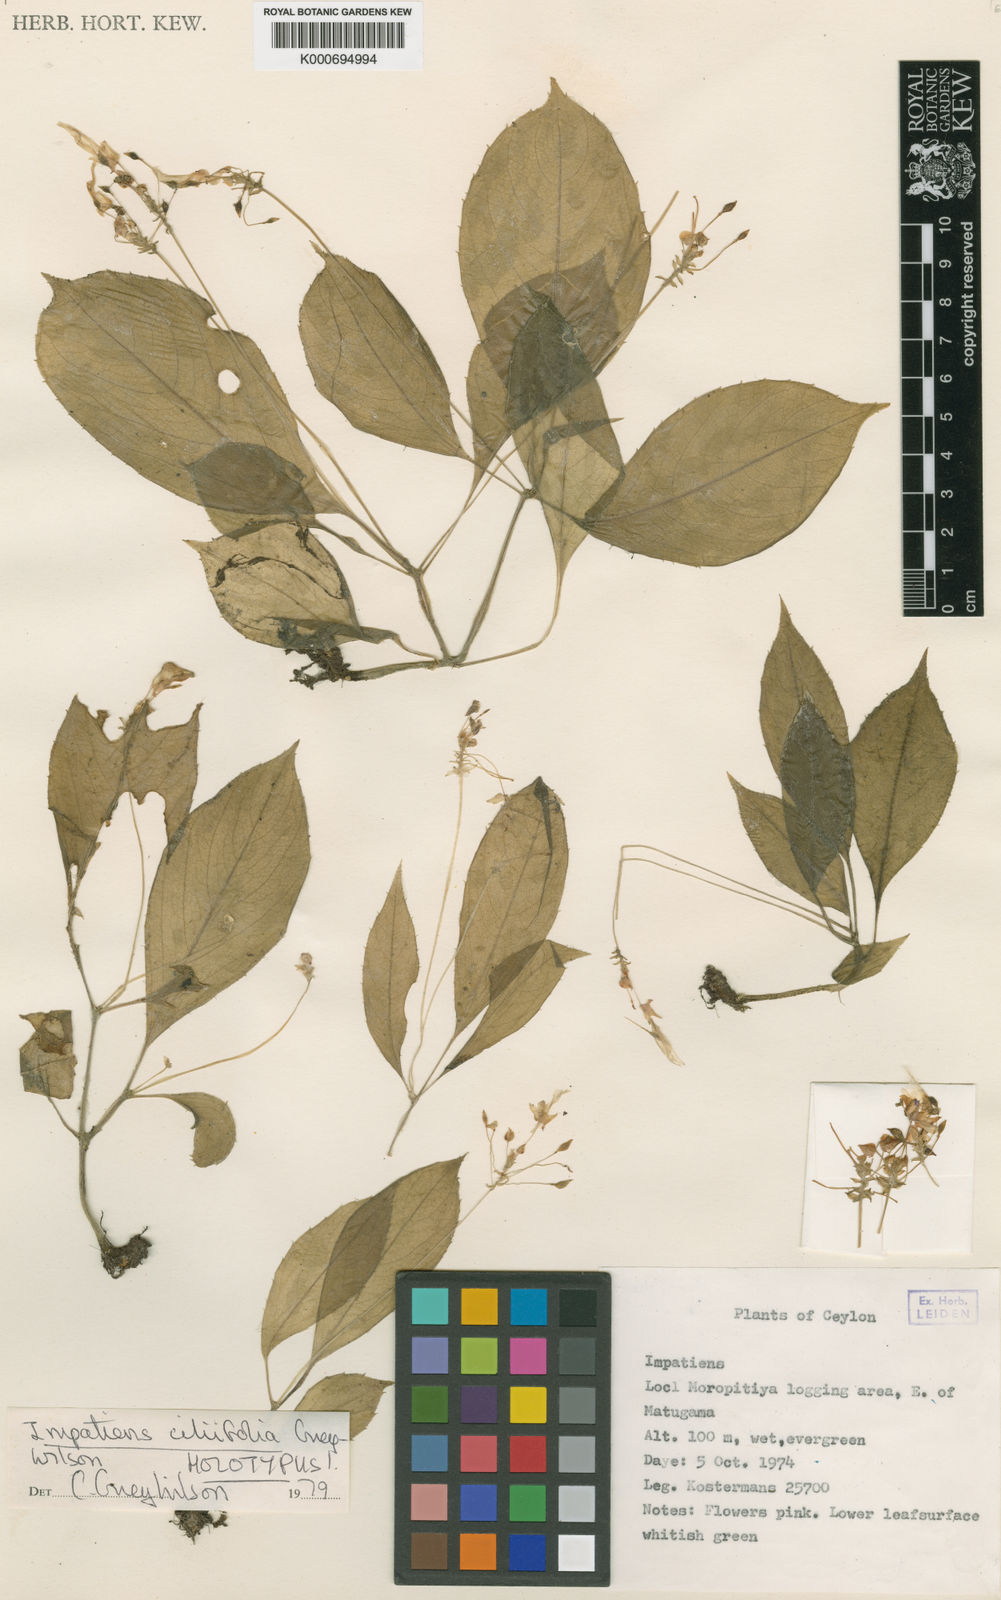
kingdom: Plantae
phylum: Tracheophyta
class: Magnoliopsida
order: Ericales
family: Balsaminaceae
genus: Impatiens
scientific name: Impatiens ciliifolia
